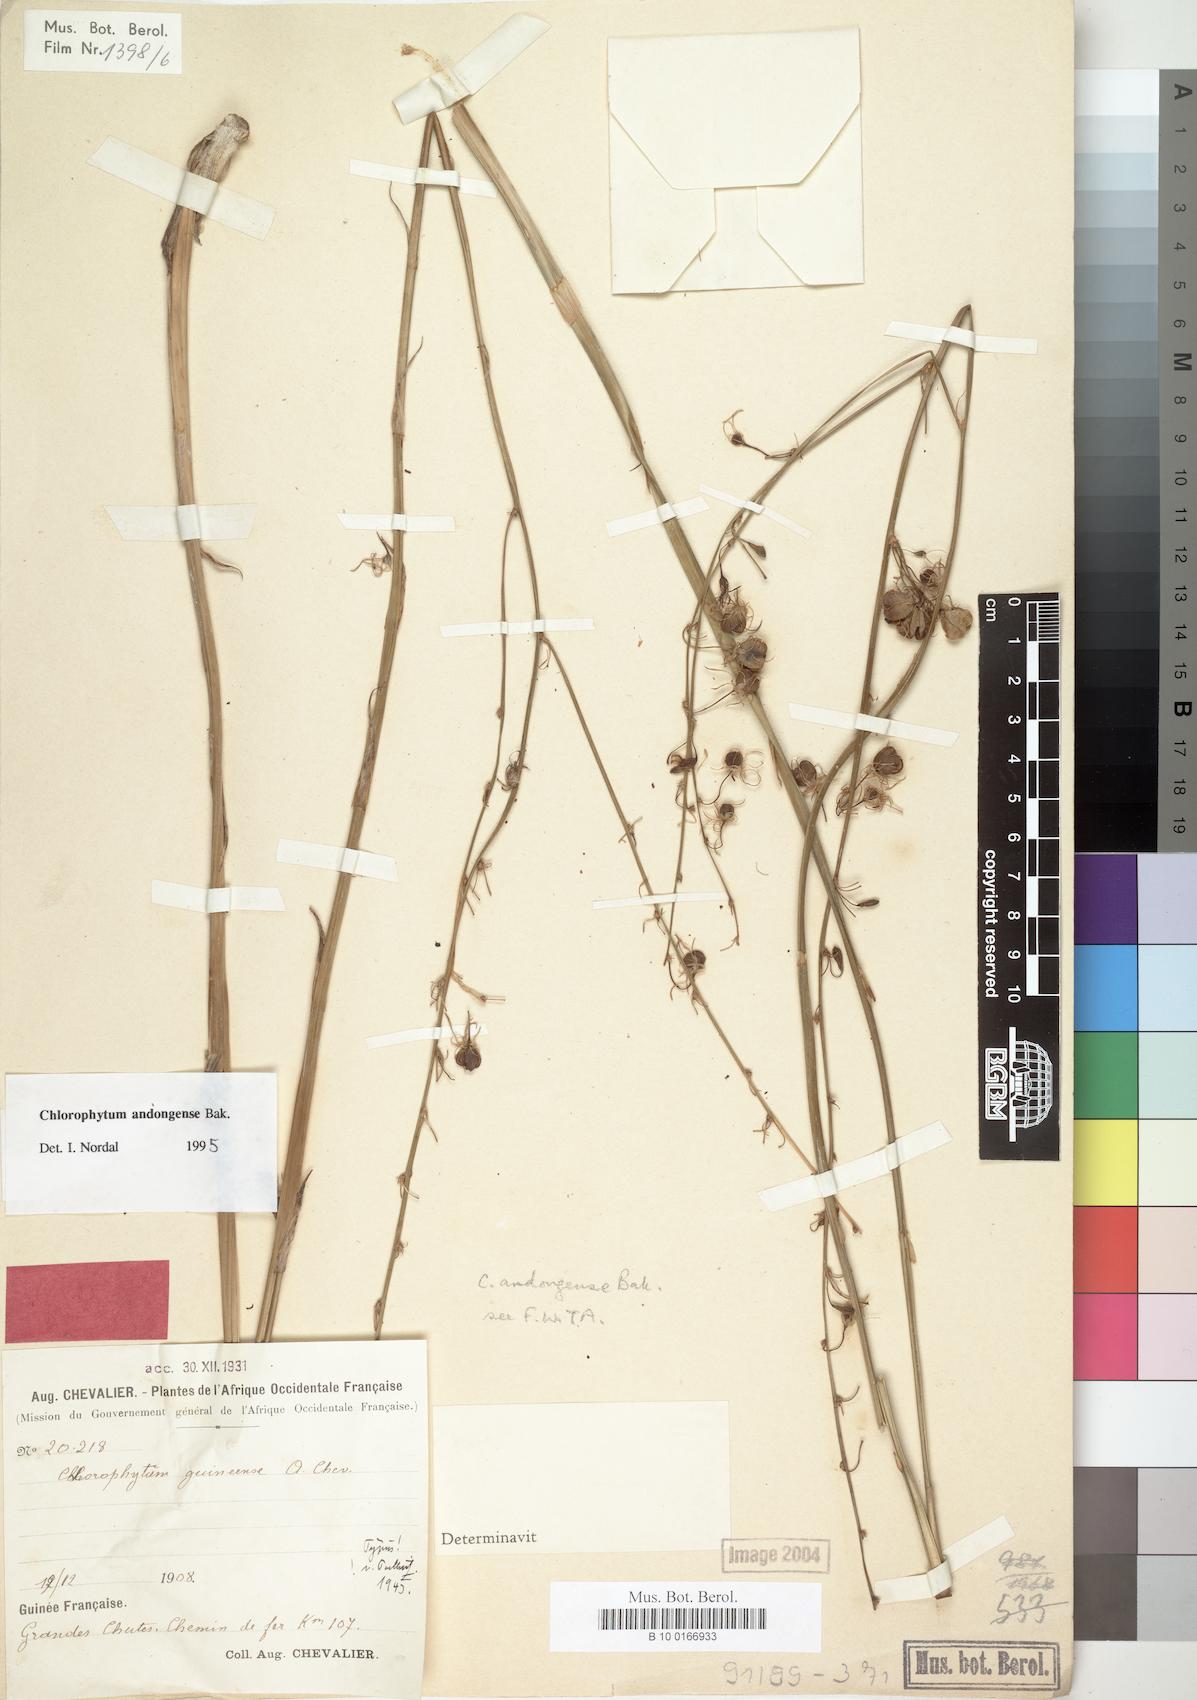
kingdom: Plantae
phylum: Tracheophyta
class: Liliopsida
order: Asparagales
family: Asparagaceae
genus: Chlorophytum
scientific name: Chlorophytum andongense
